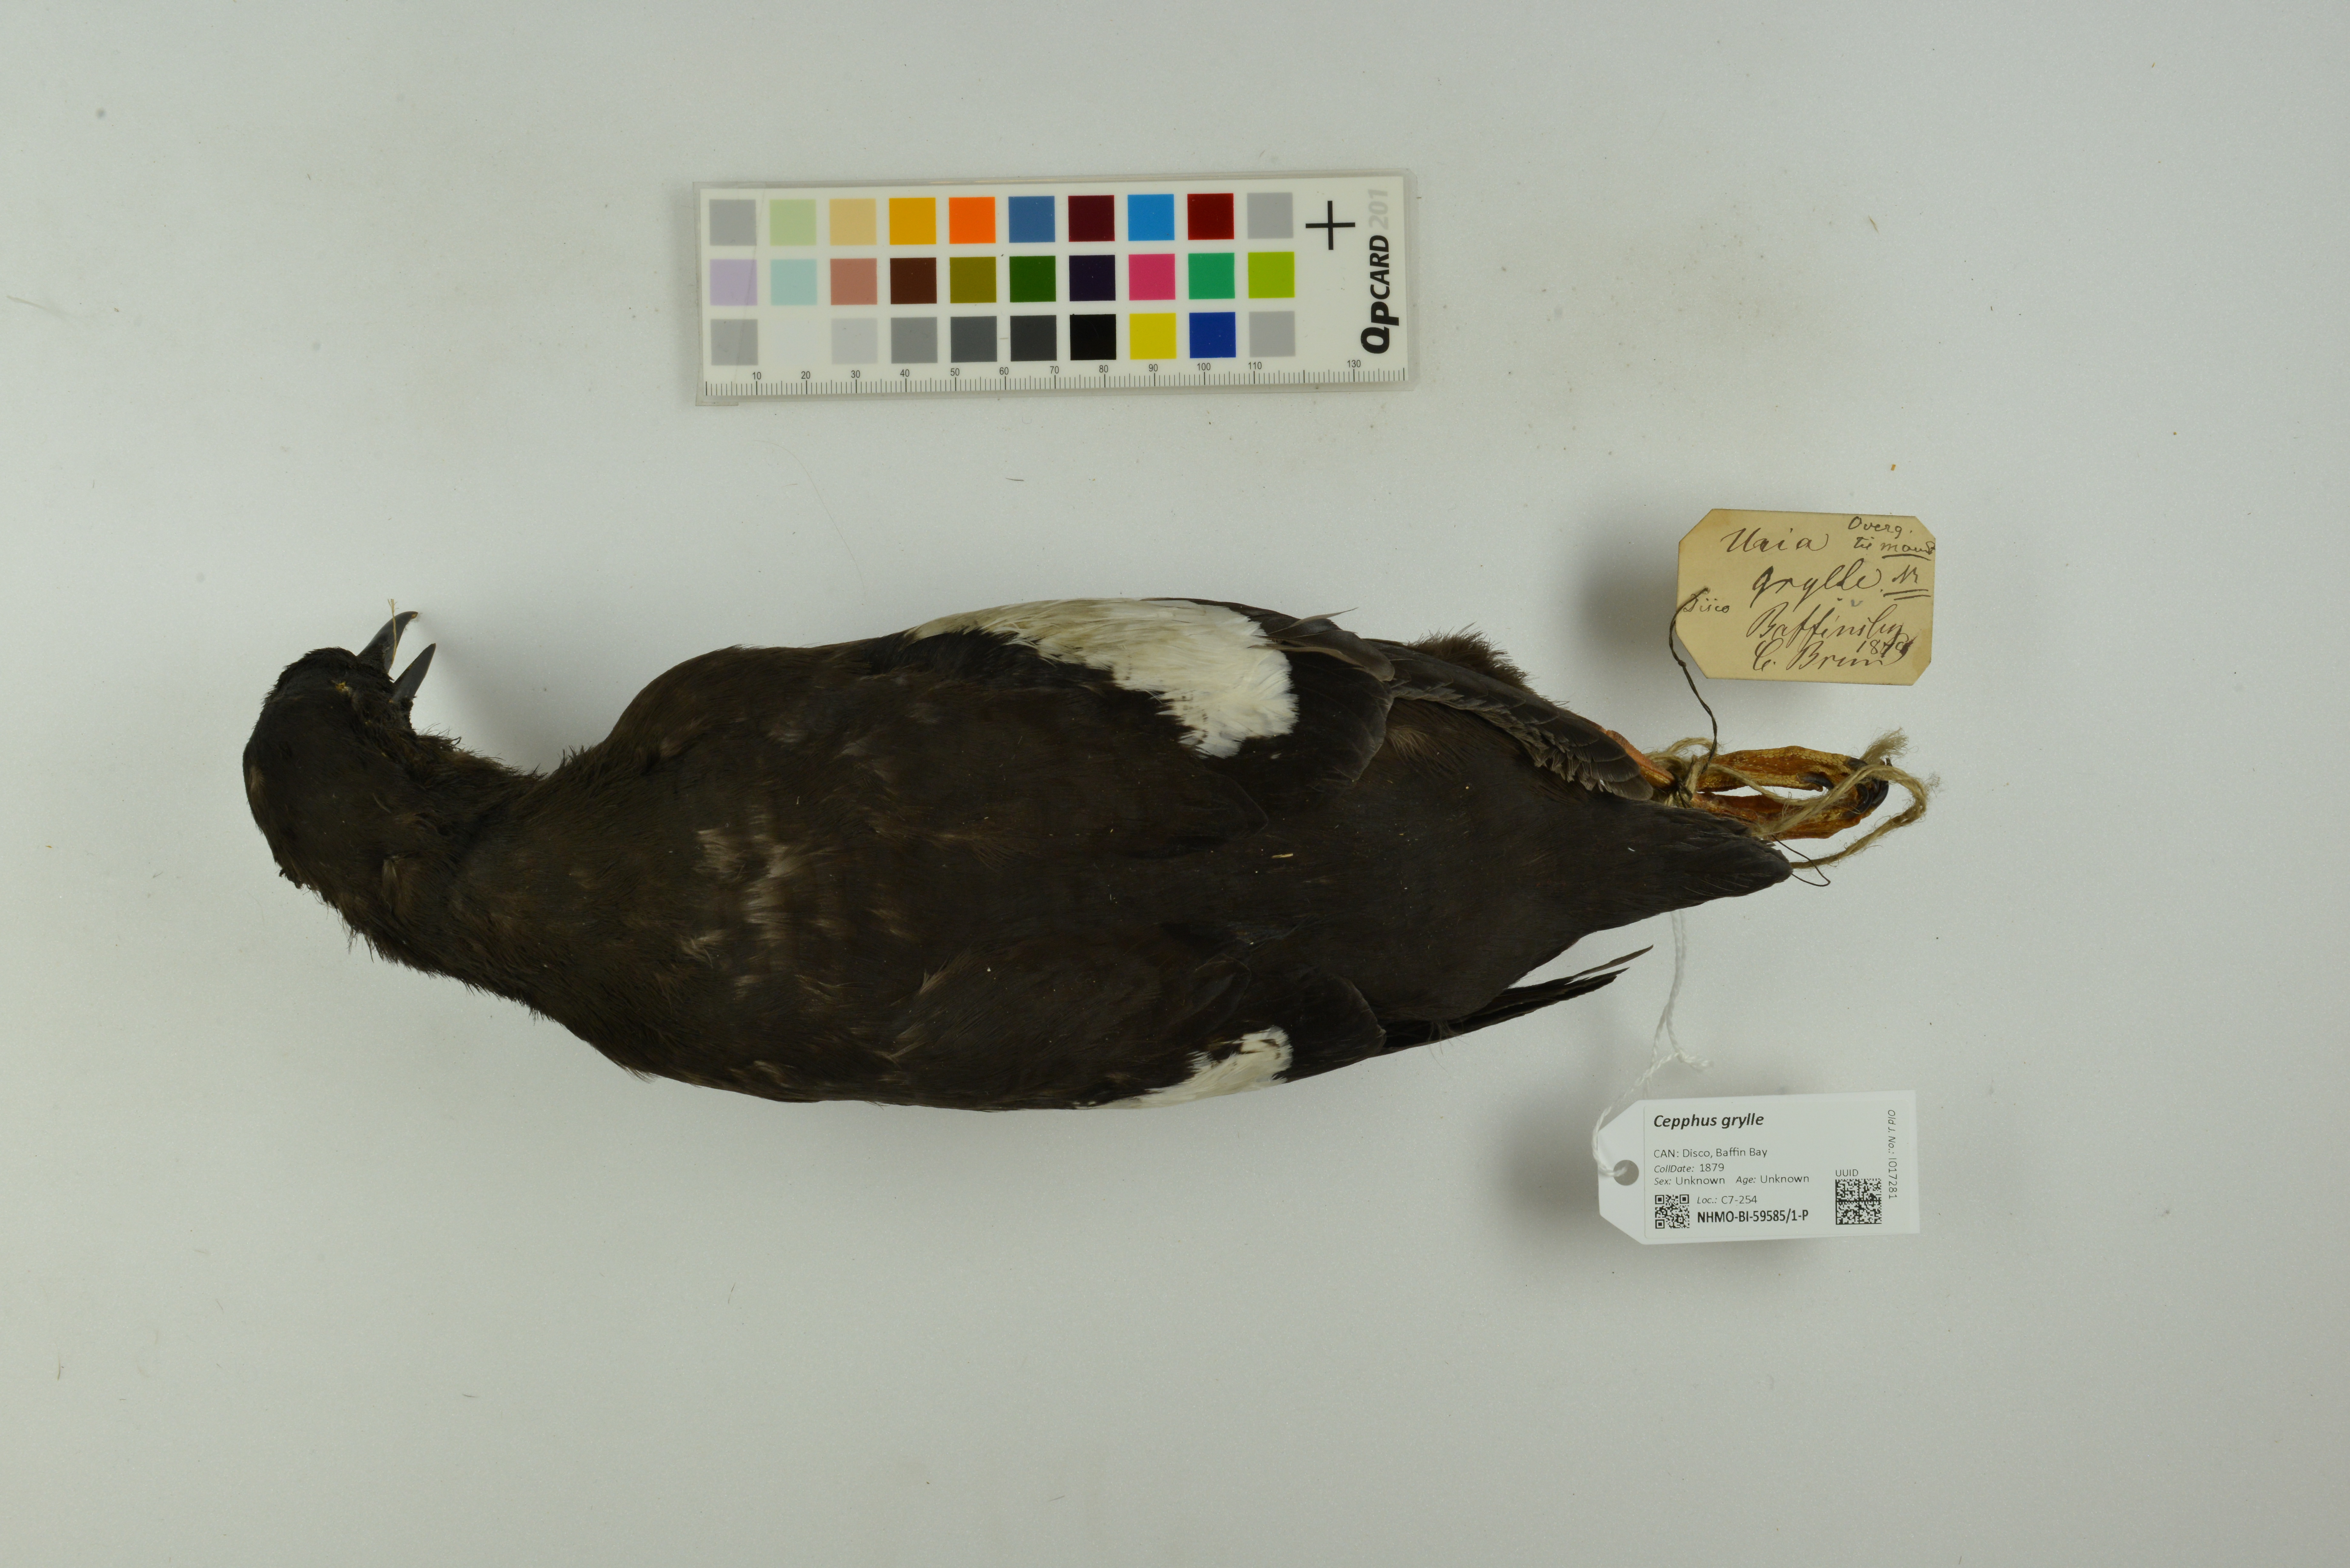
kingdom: Animalia
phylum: Chordata
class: Aves
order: Charadriiformes
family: Alcidae
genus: Cepphus
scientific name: Cepphus grylle
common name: Black guillemot
